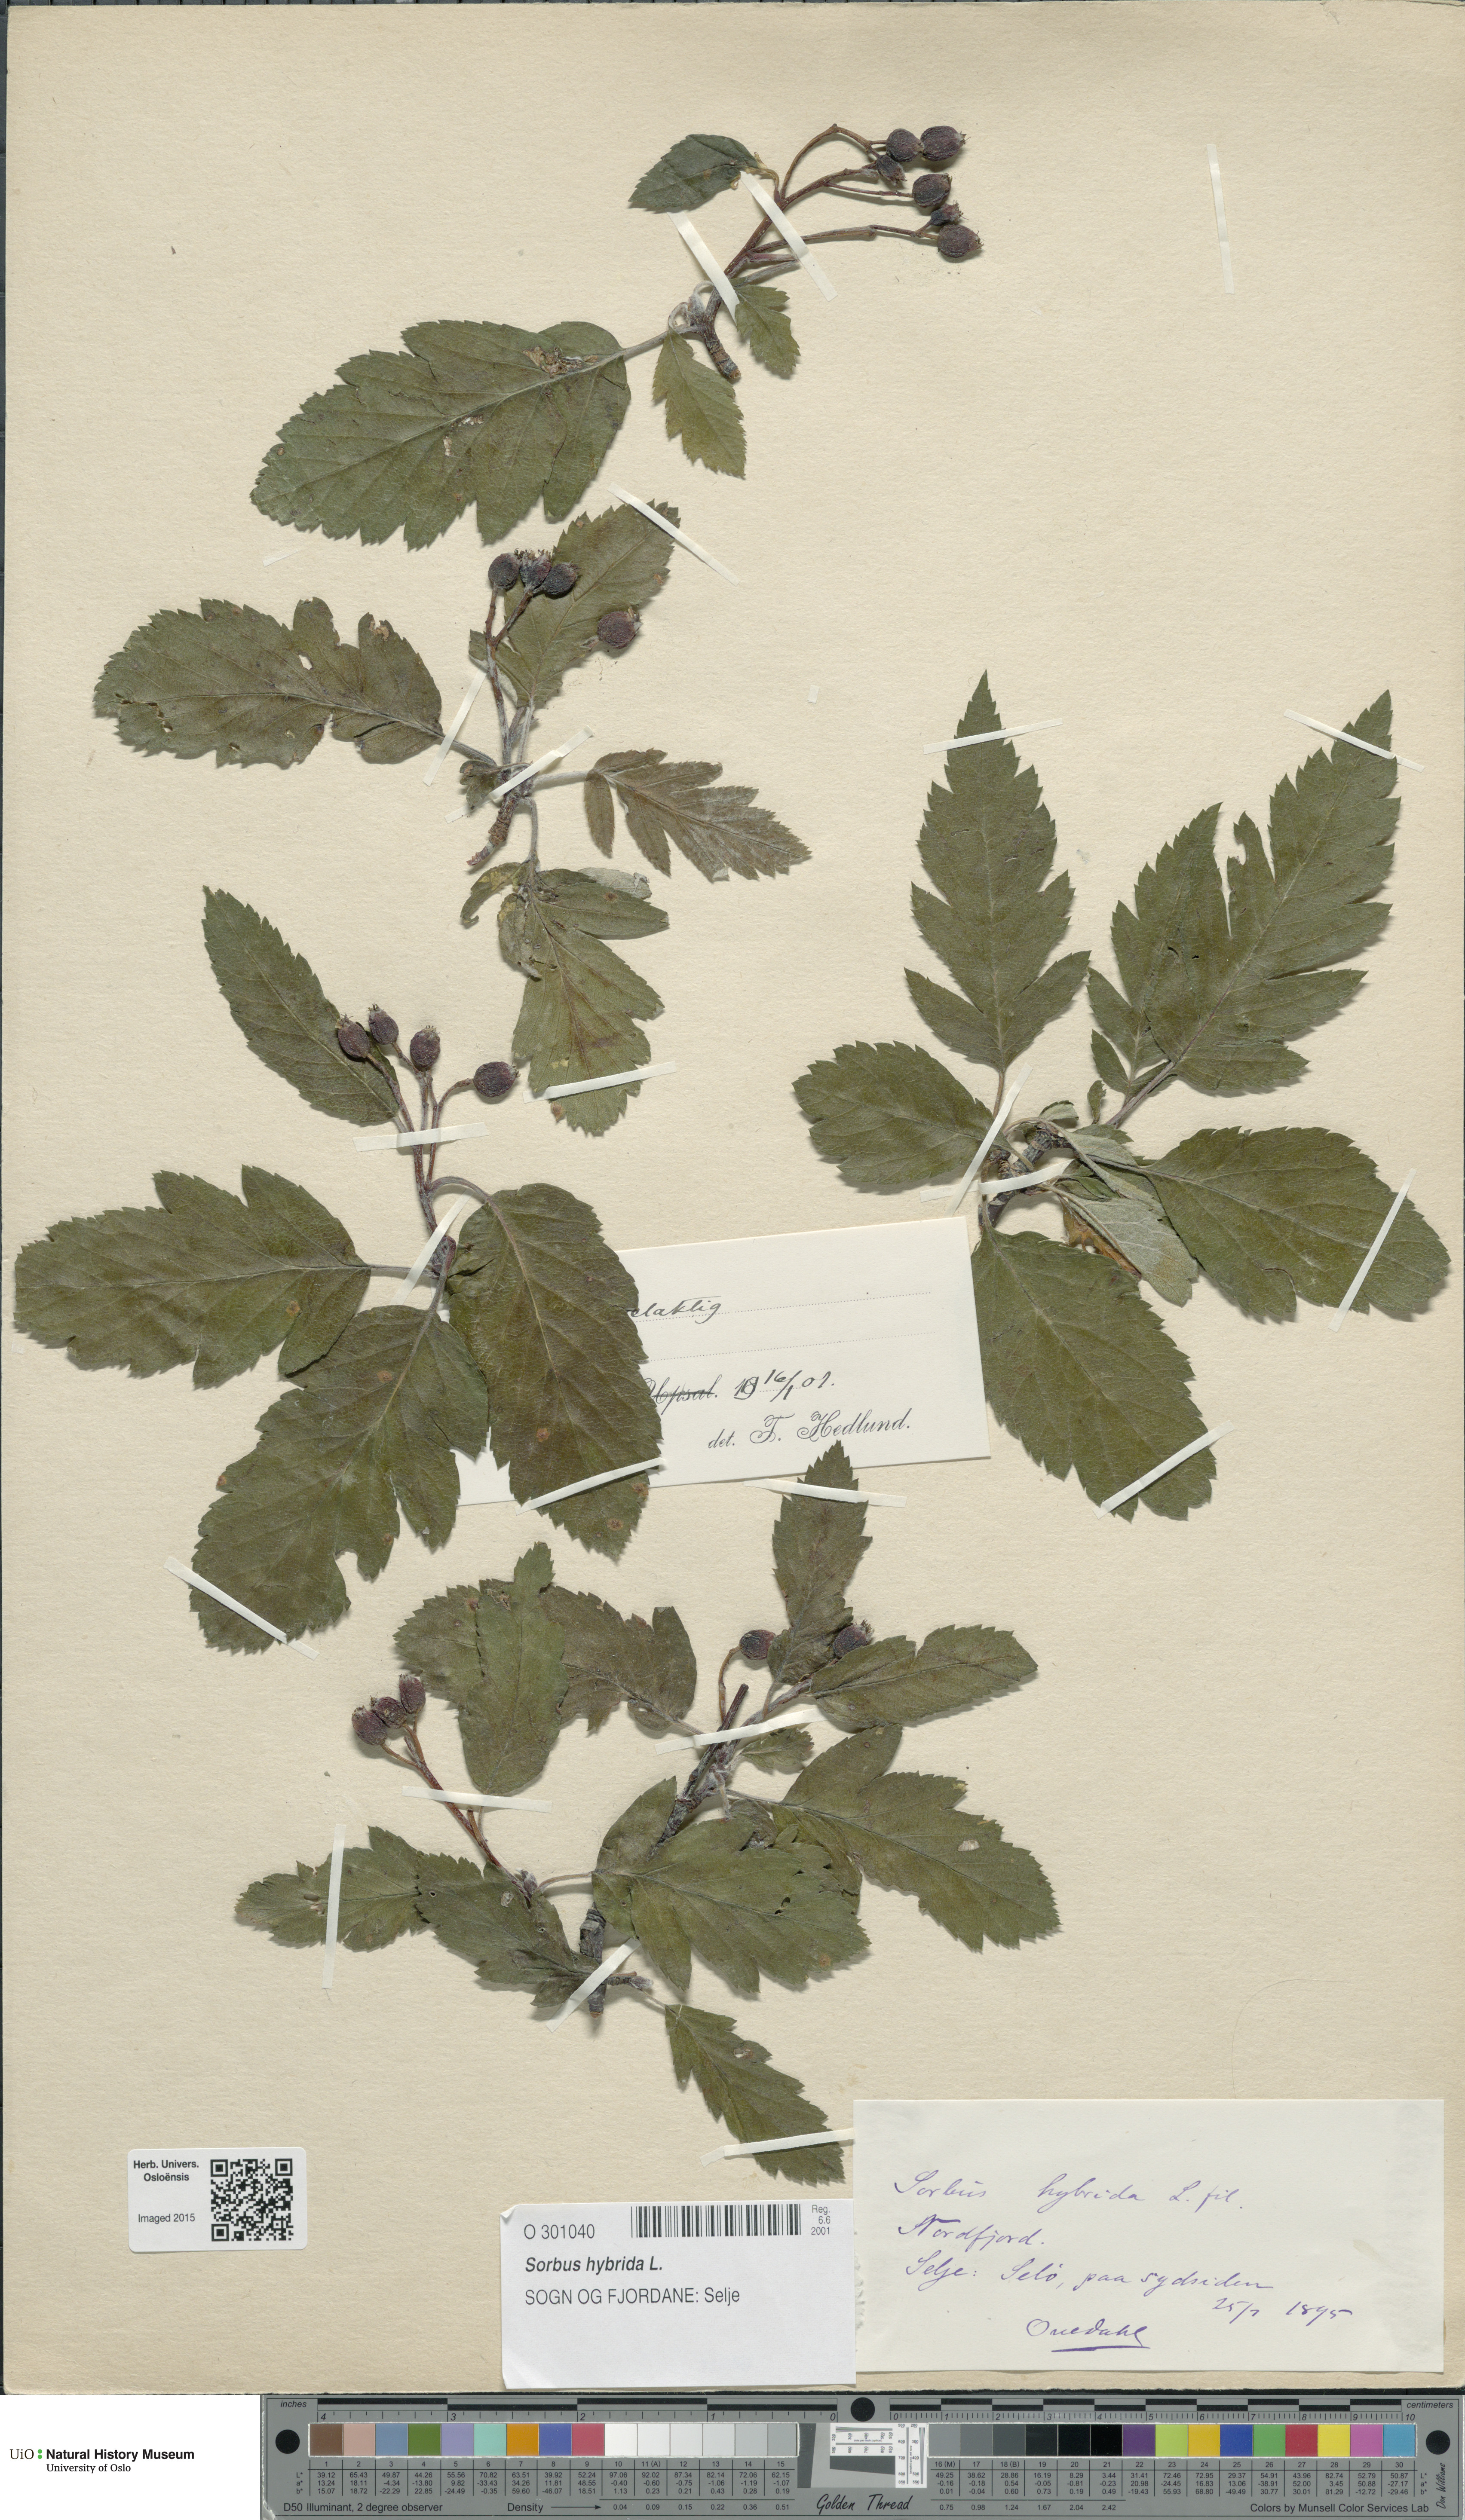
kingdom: Plantae
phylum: Tracheophyta
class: Magnoliopsida
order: Rosales
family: Rosaceae
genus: Hedlundia
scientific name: Hedlundia hybrida
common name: Swedish service-tree
